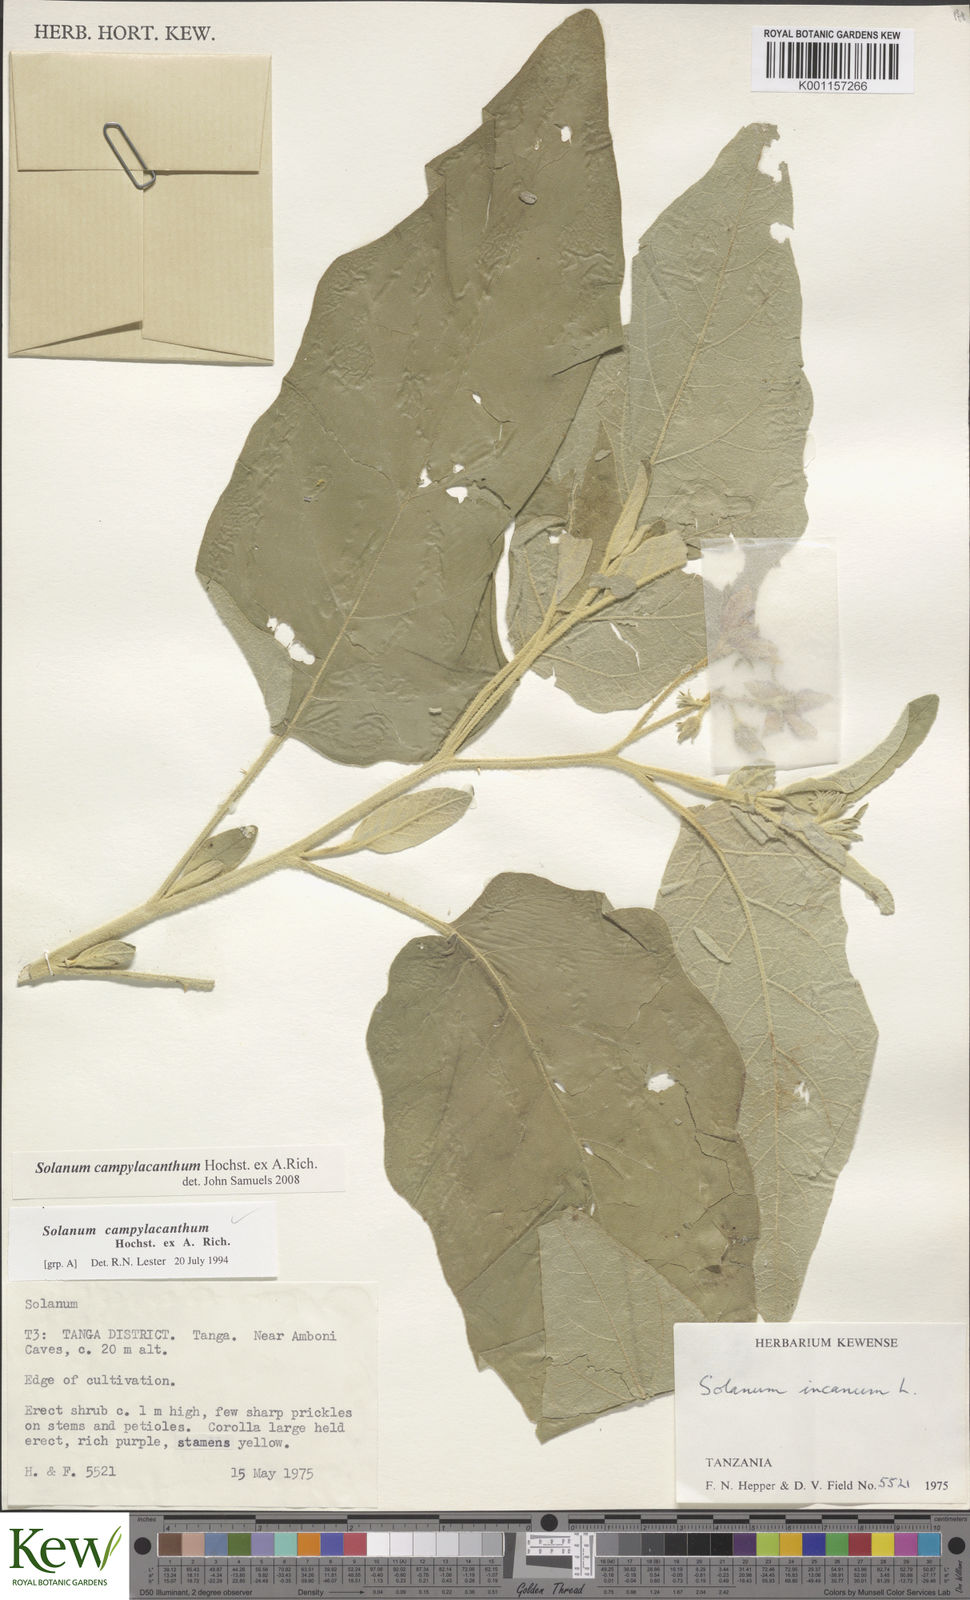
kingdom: Plantae
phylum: Tracheophyta
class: Magnoliopsida
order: Solanales
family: Solanaceae
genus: Solanum
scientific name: Solanum campylacanthum
